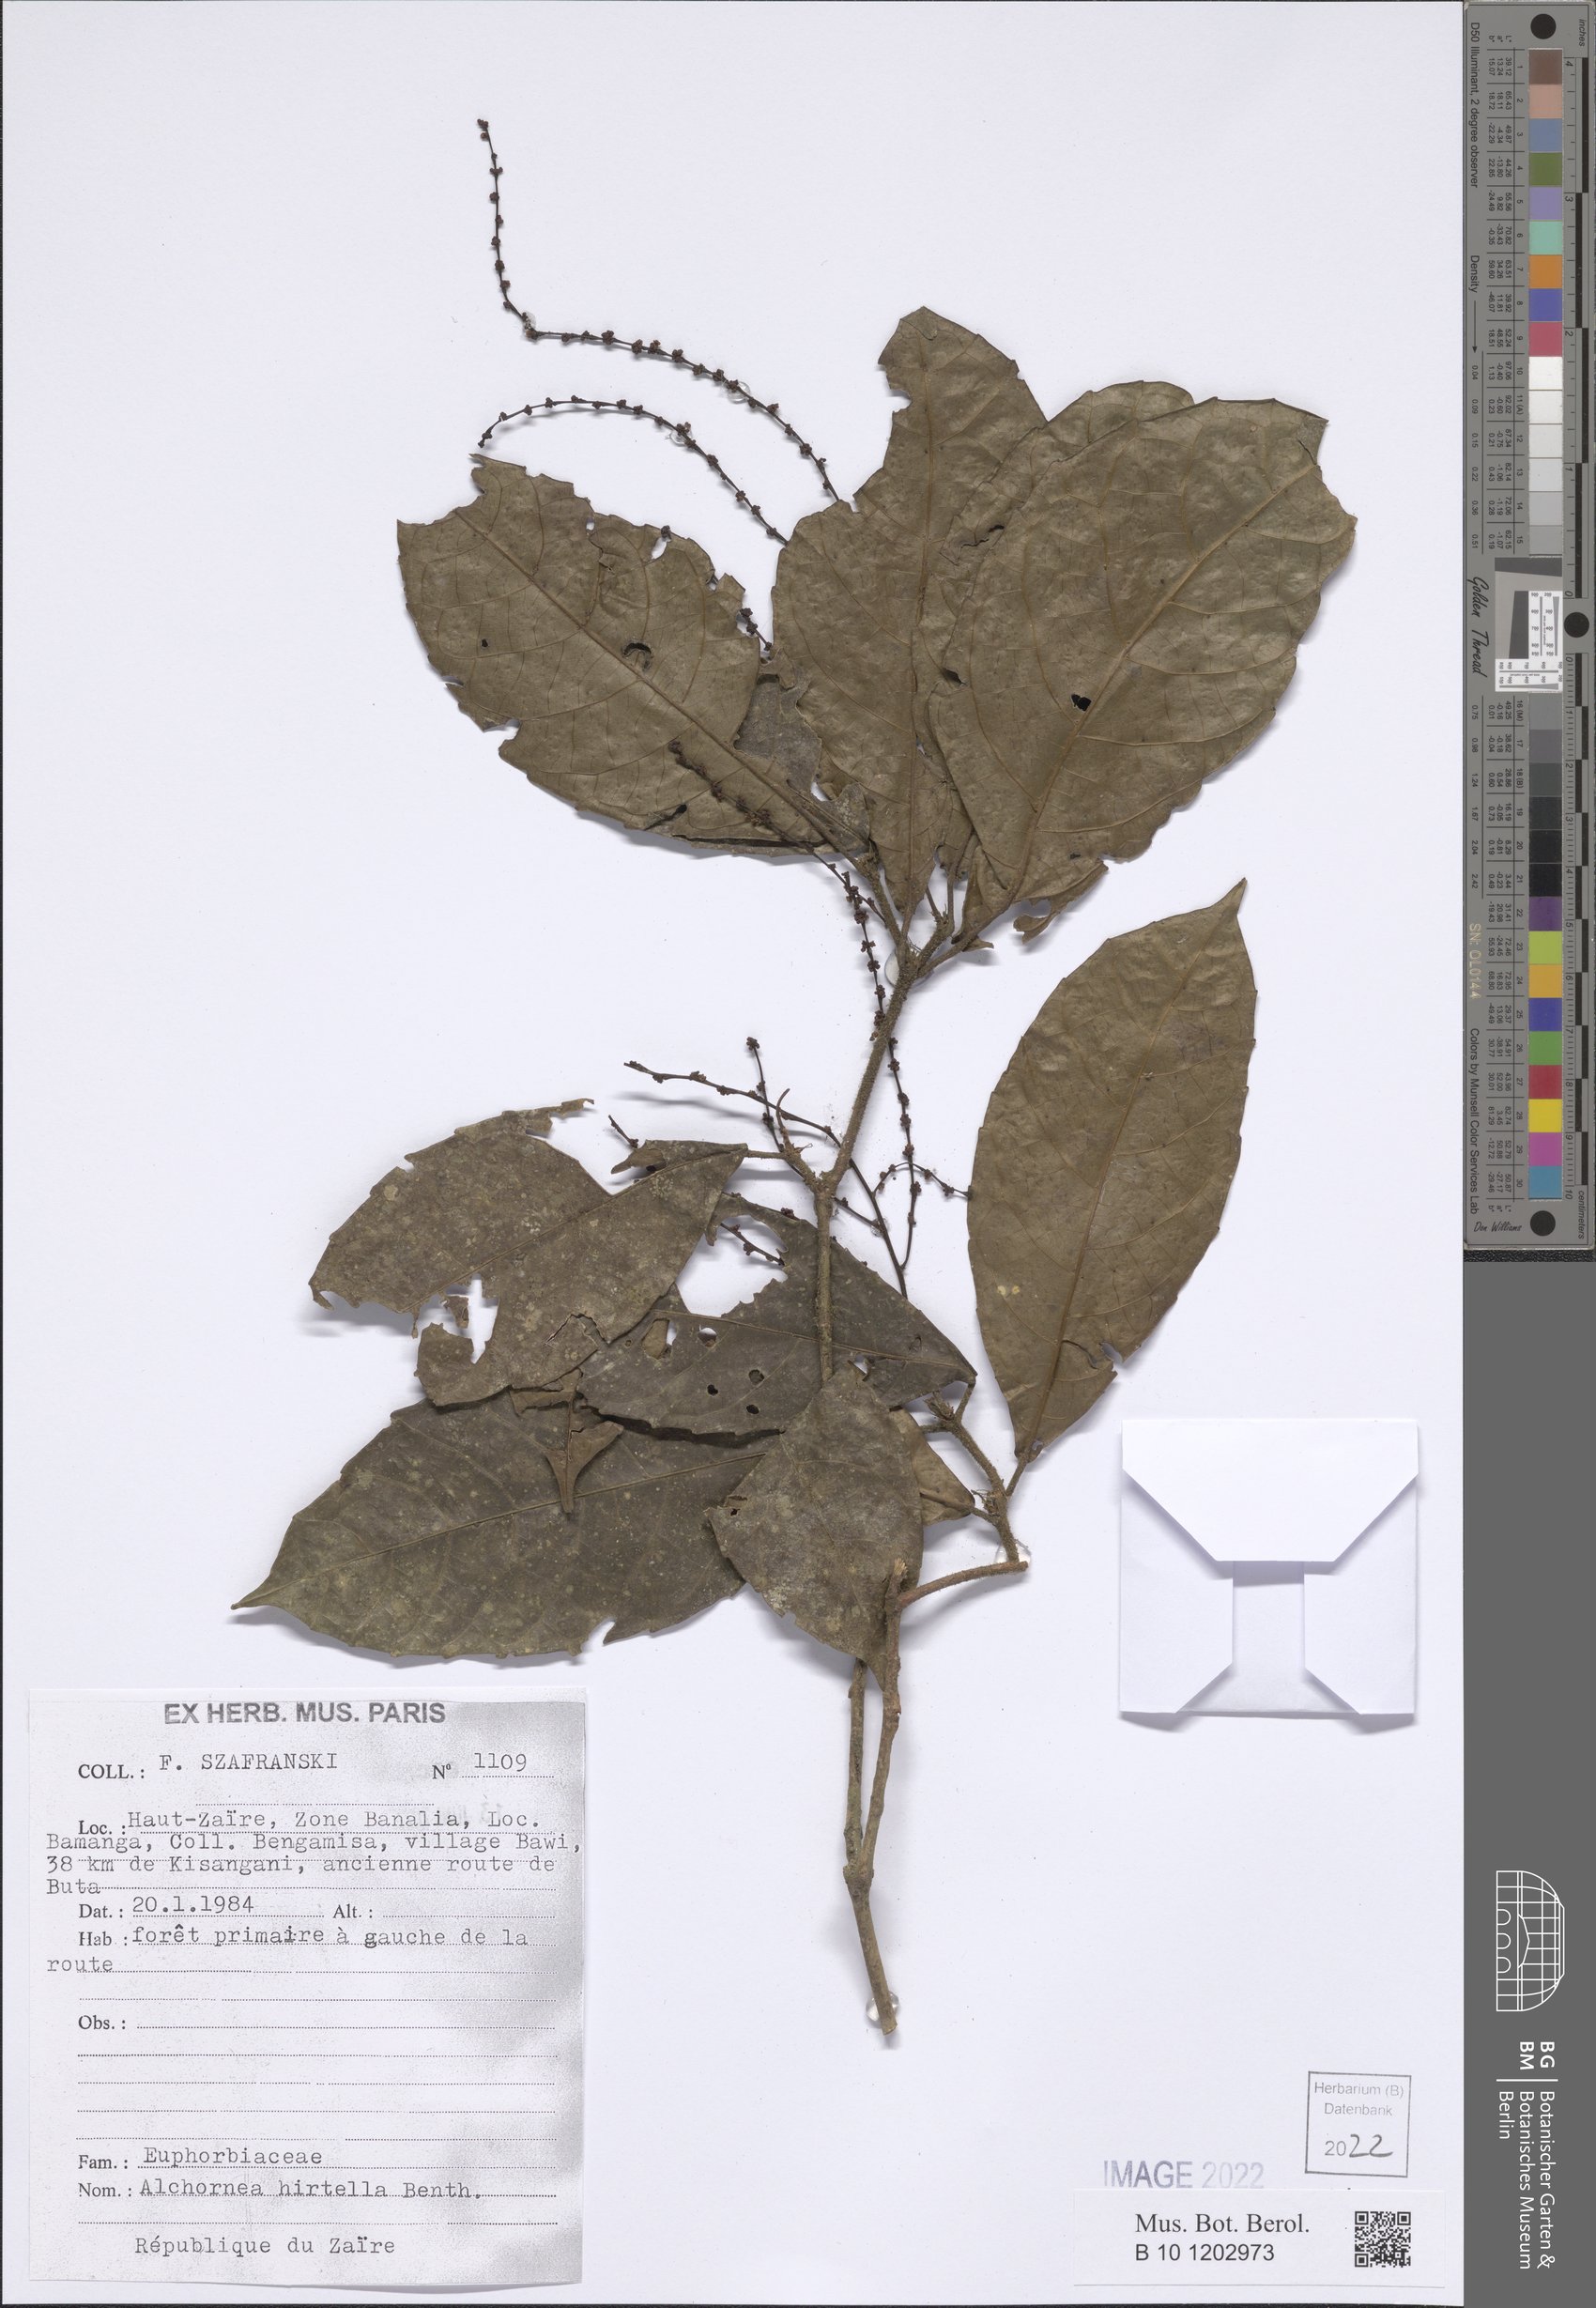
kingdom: Plantae
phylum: Tracheophyta
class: Magnoliopsida
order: Malpighiales
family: Euphorbiaceae
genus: Alchornea
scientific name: Alchornea hirtella
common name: Forest bead-string
